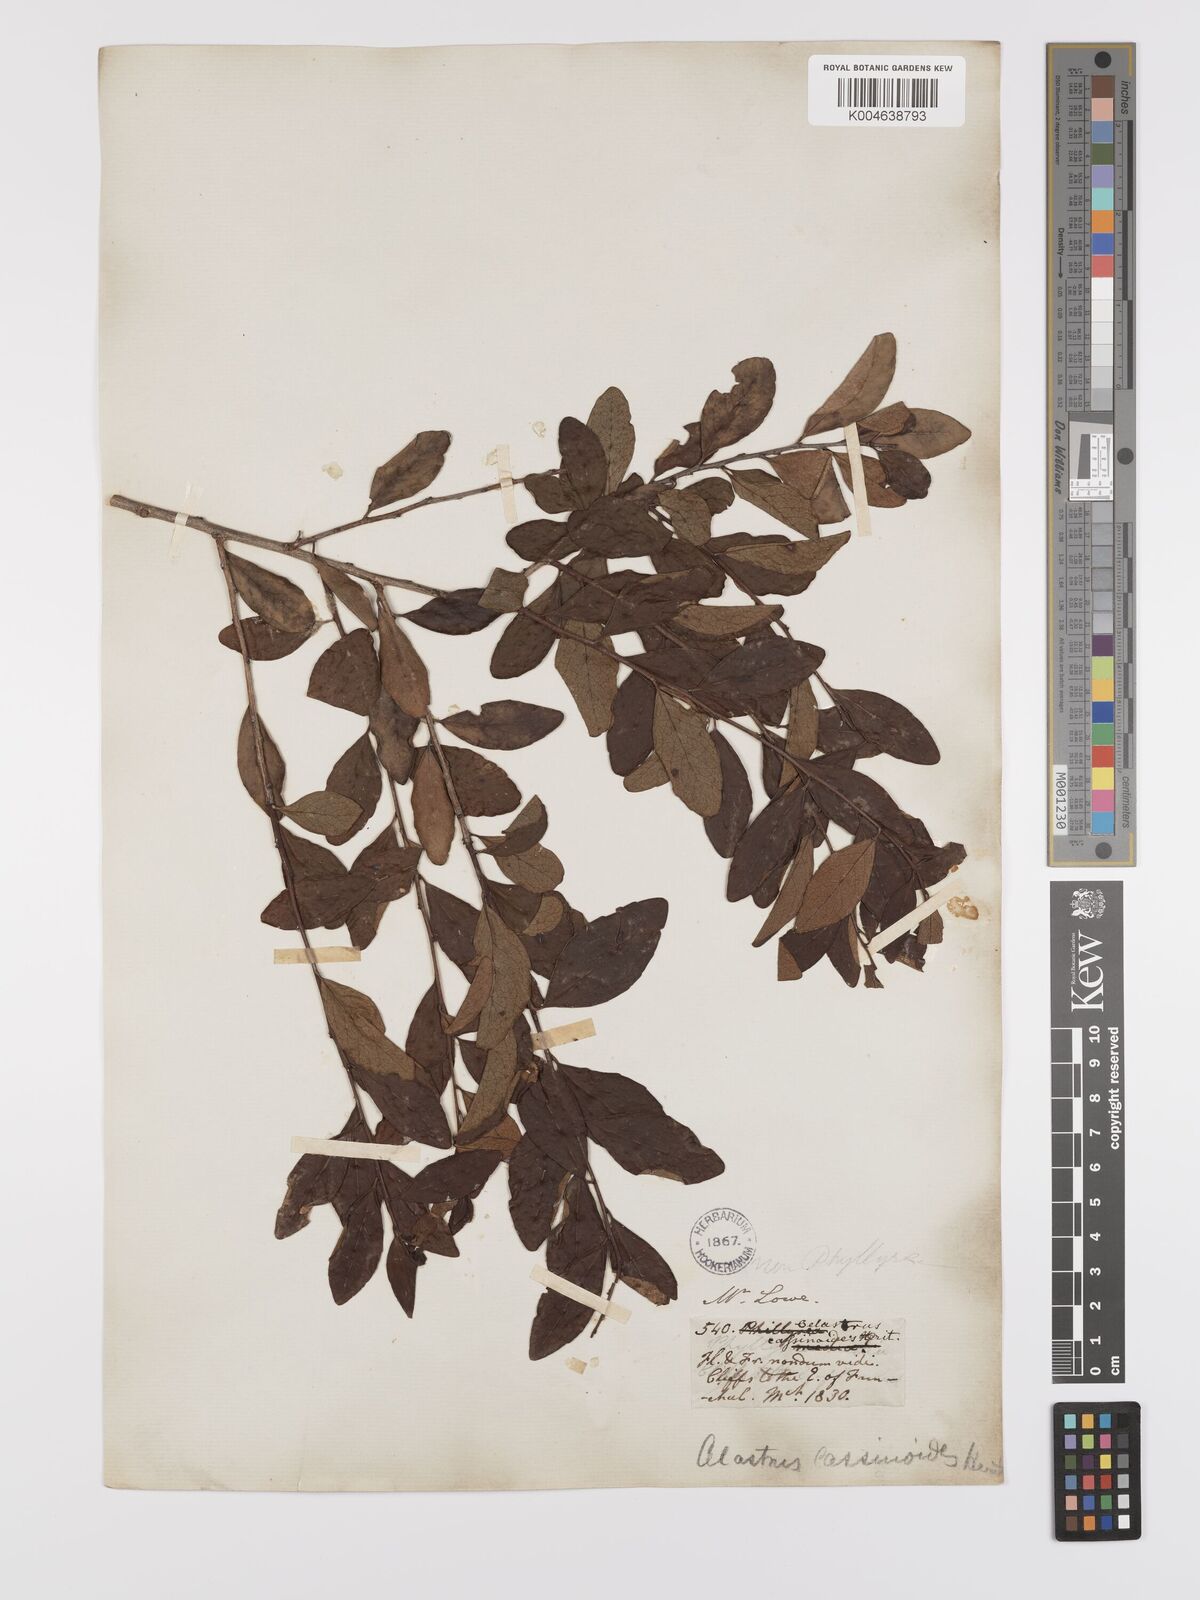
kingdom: Plantae
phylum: Tracheophyta
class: Magnoliopsida
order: Celastrales
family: Celastraceae
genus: Gymnosporia
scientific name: Gymnosporia
